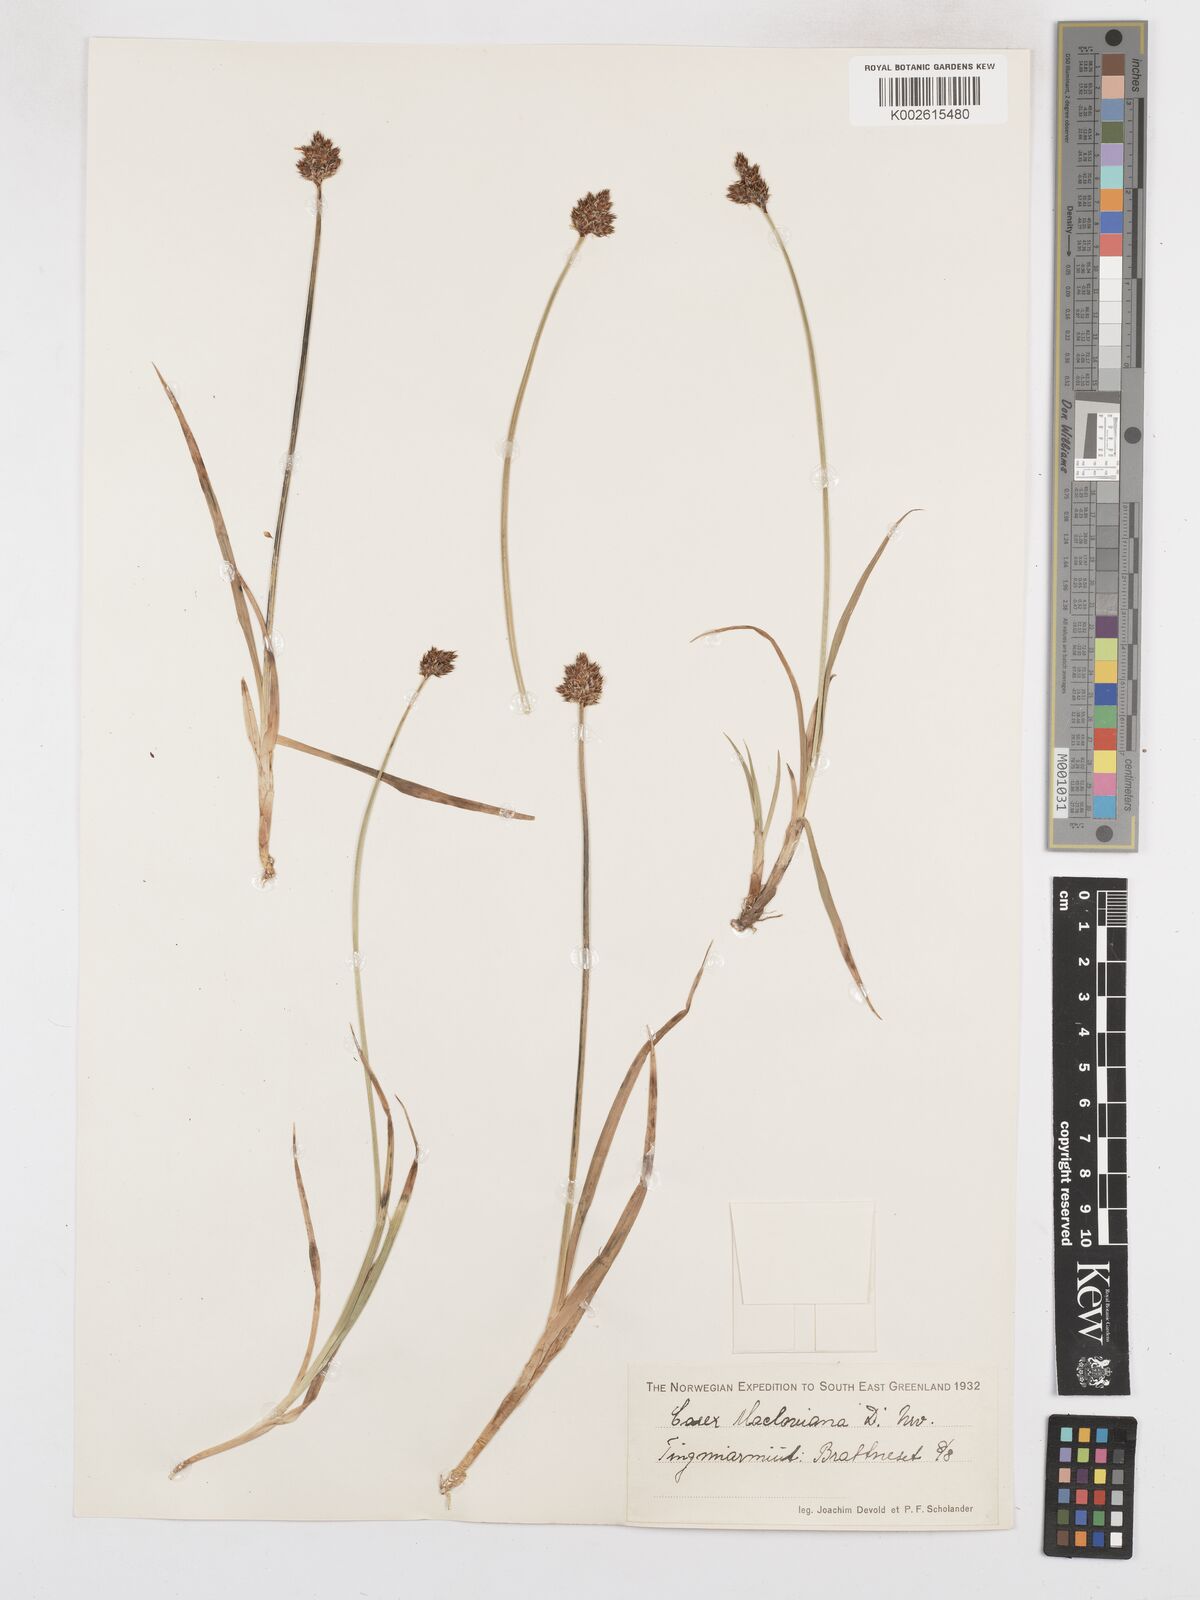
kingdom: Plantae
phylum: Tracheophyta
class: Liliopsida
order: Poales
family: Cyperaceae
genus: Carex
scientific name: Carex
